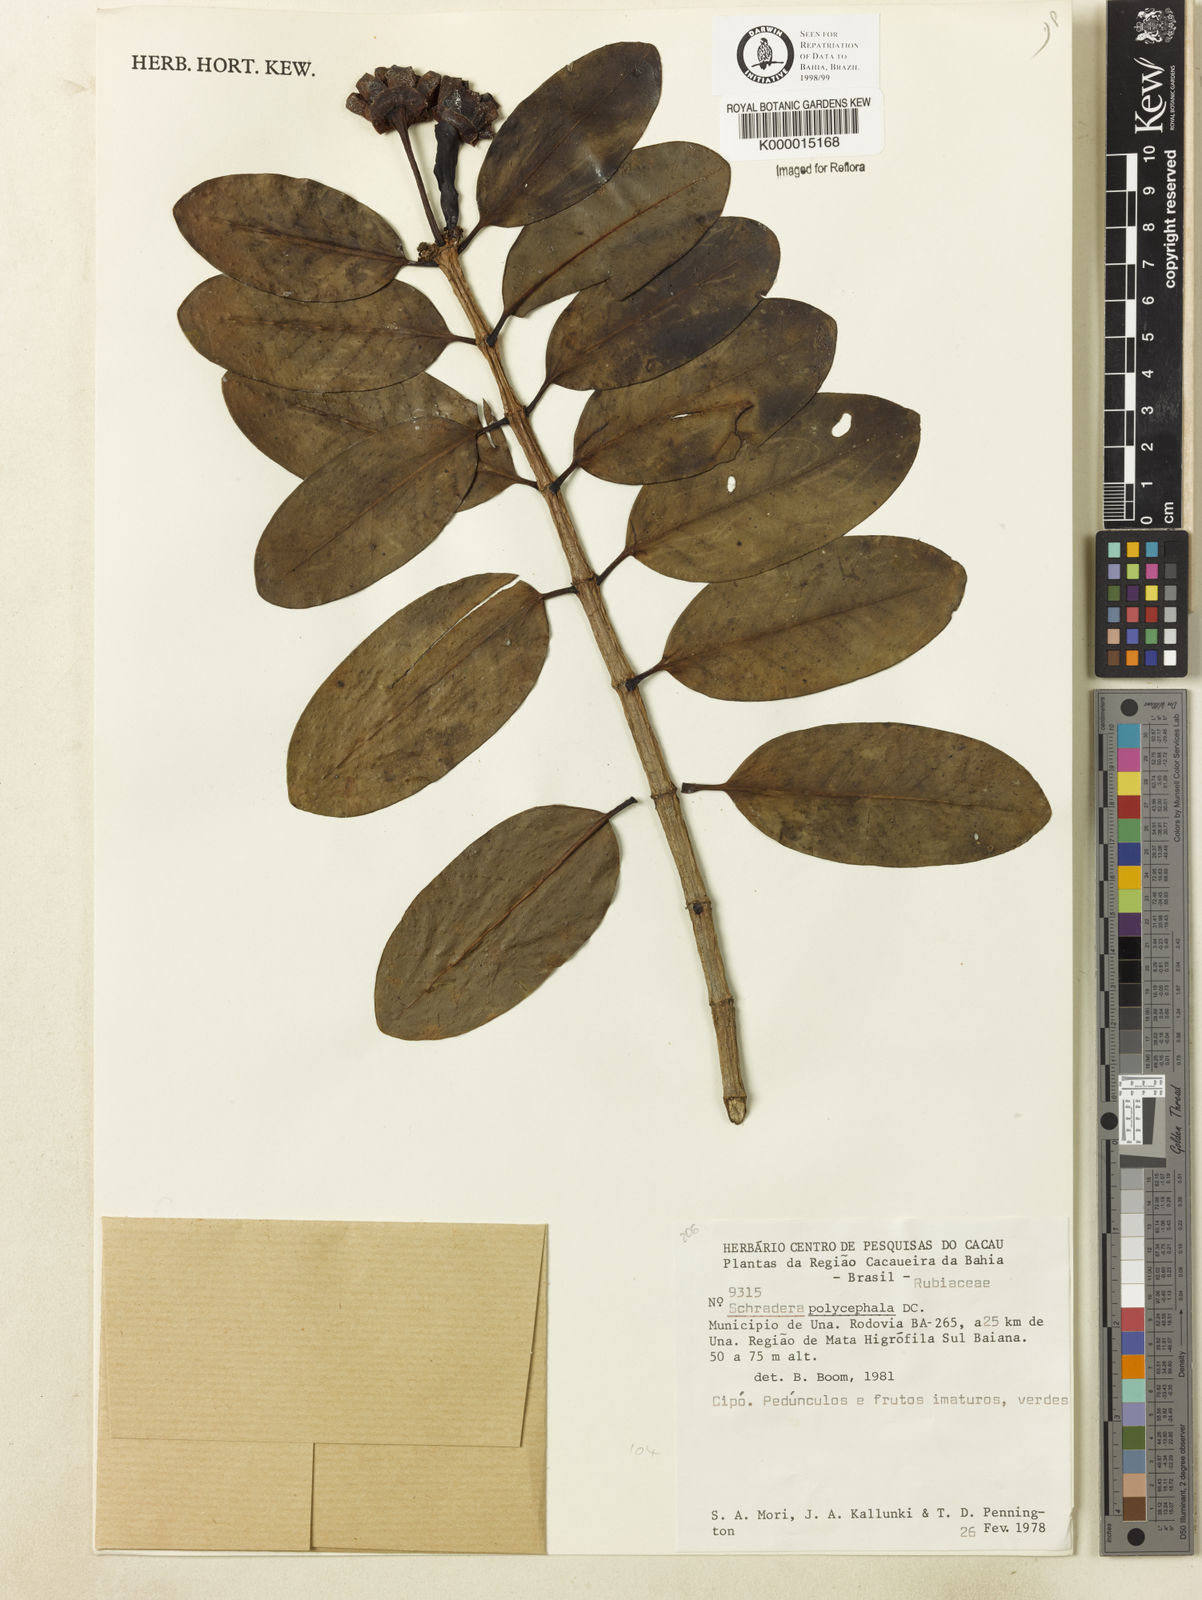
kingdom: Plantae
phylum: Tracheophyta
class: Magnoliopsida
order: Gentianales
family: Rubiaceae
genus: Schradera
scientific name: Schradera polycephala
